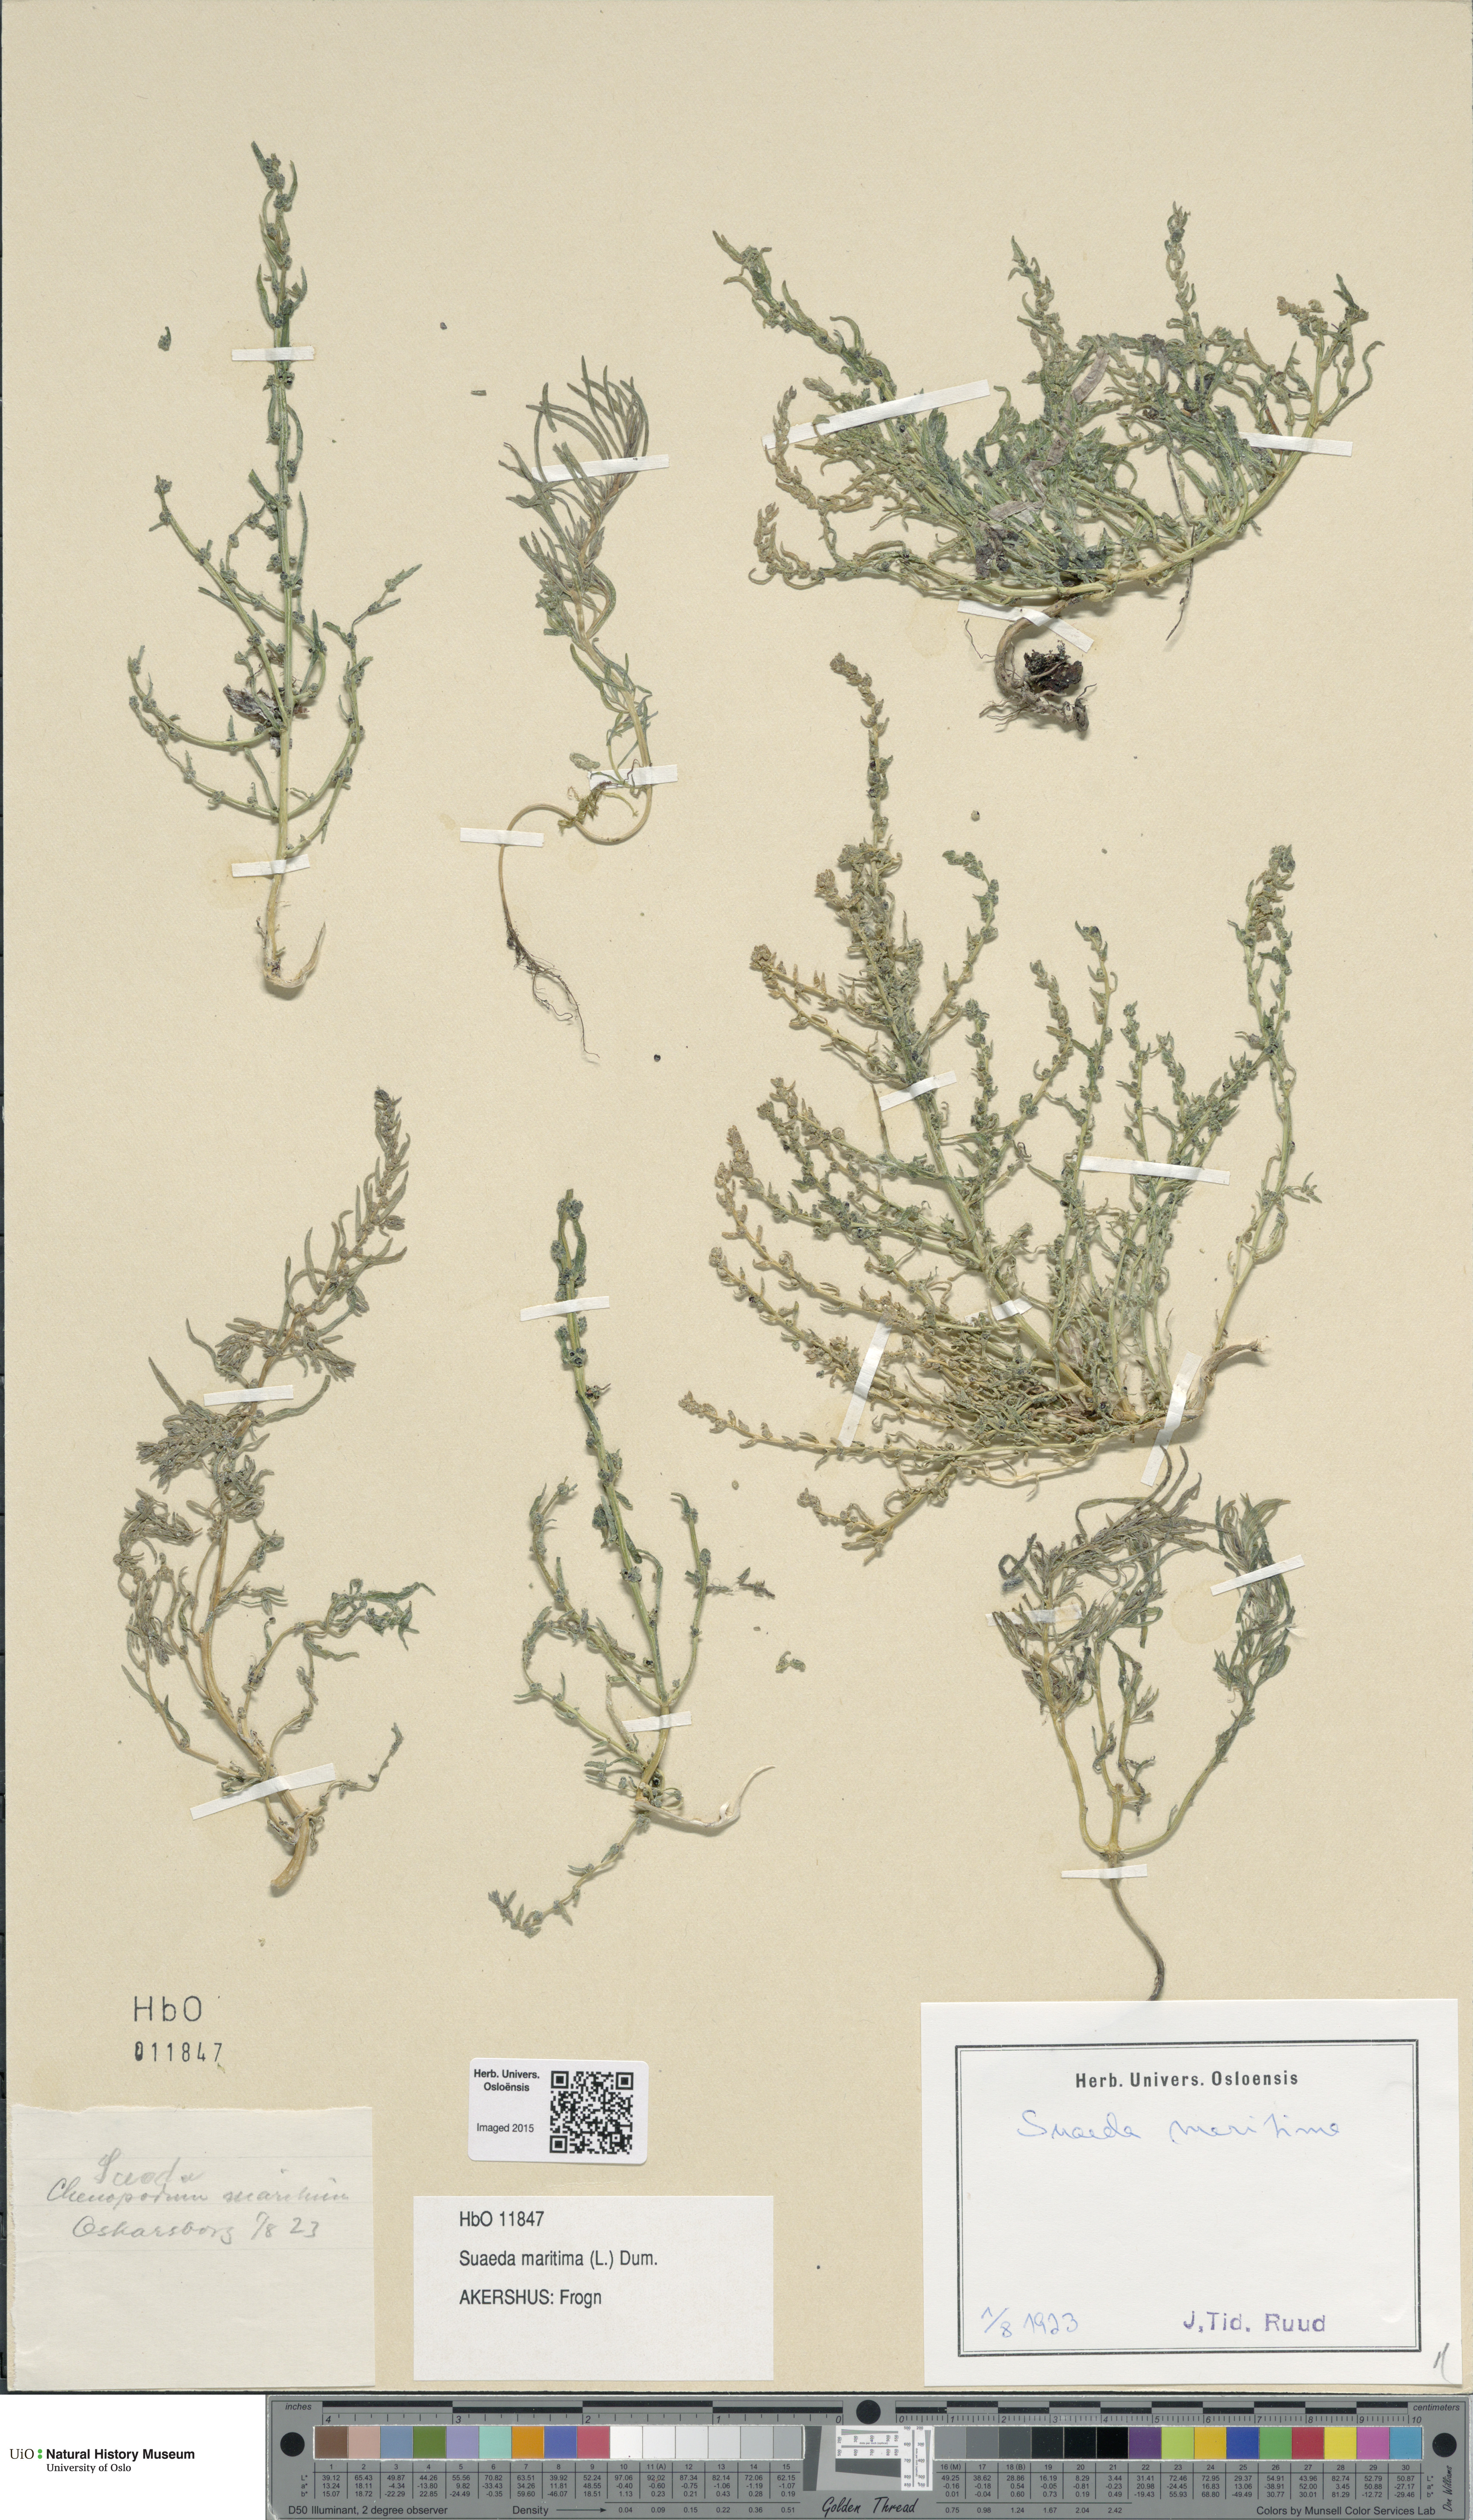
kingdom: Plantae
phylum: Tracheophyta
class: Magnoliopsida
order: Caryophyllales
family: Amaranthaceae
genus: Suaeda
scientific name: Suaeda maritima
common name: Annual sea-blite
